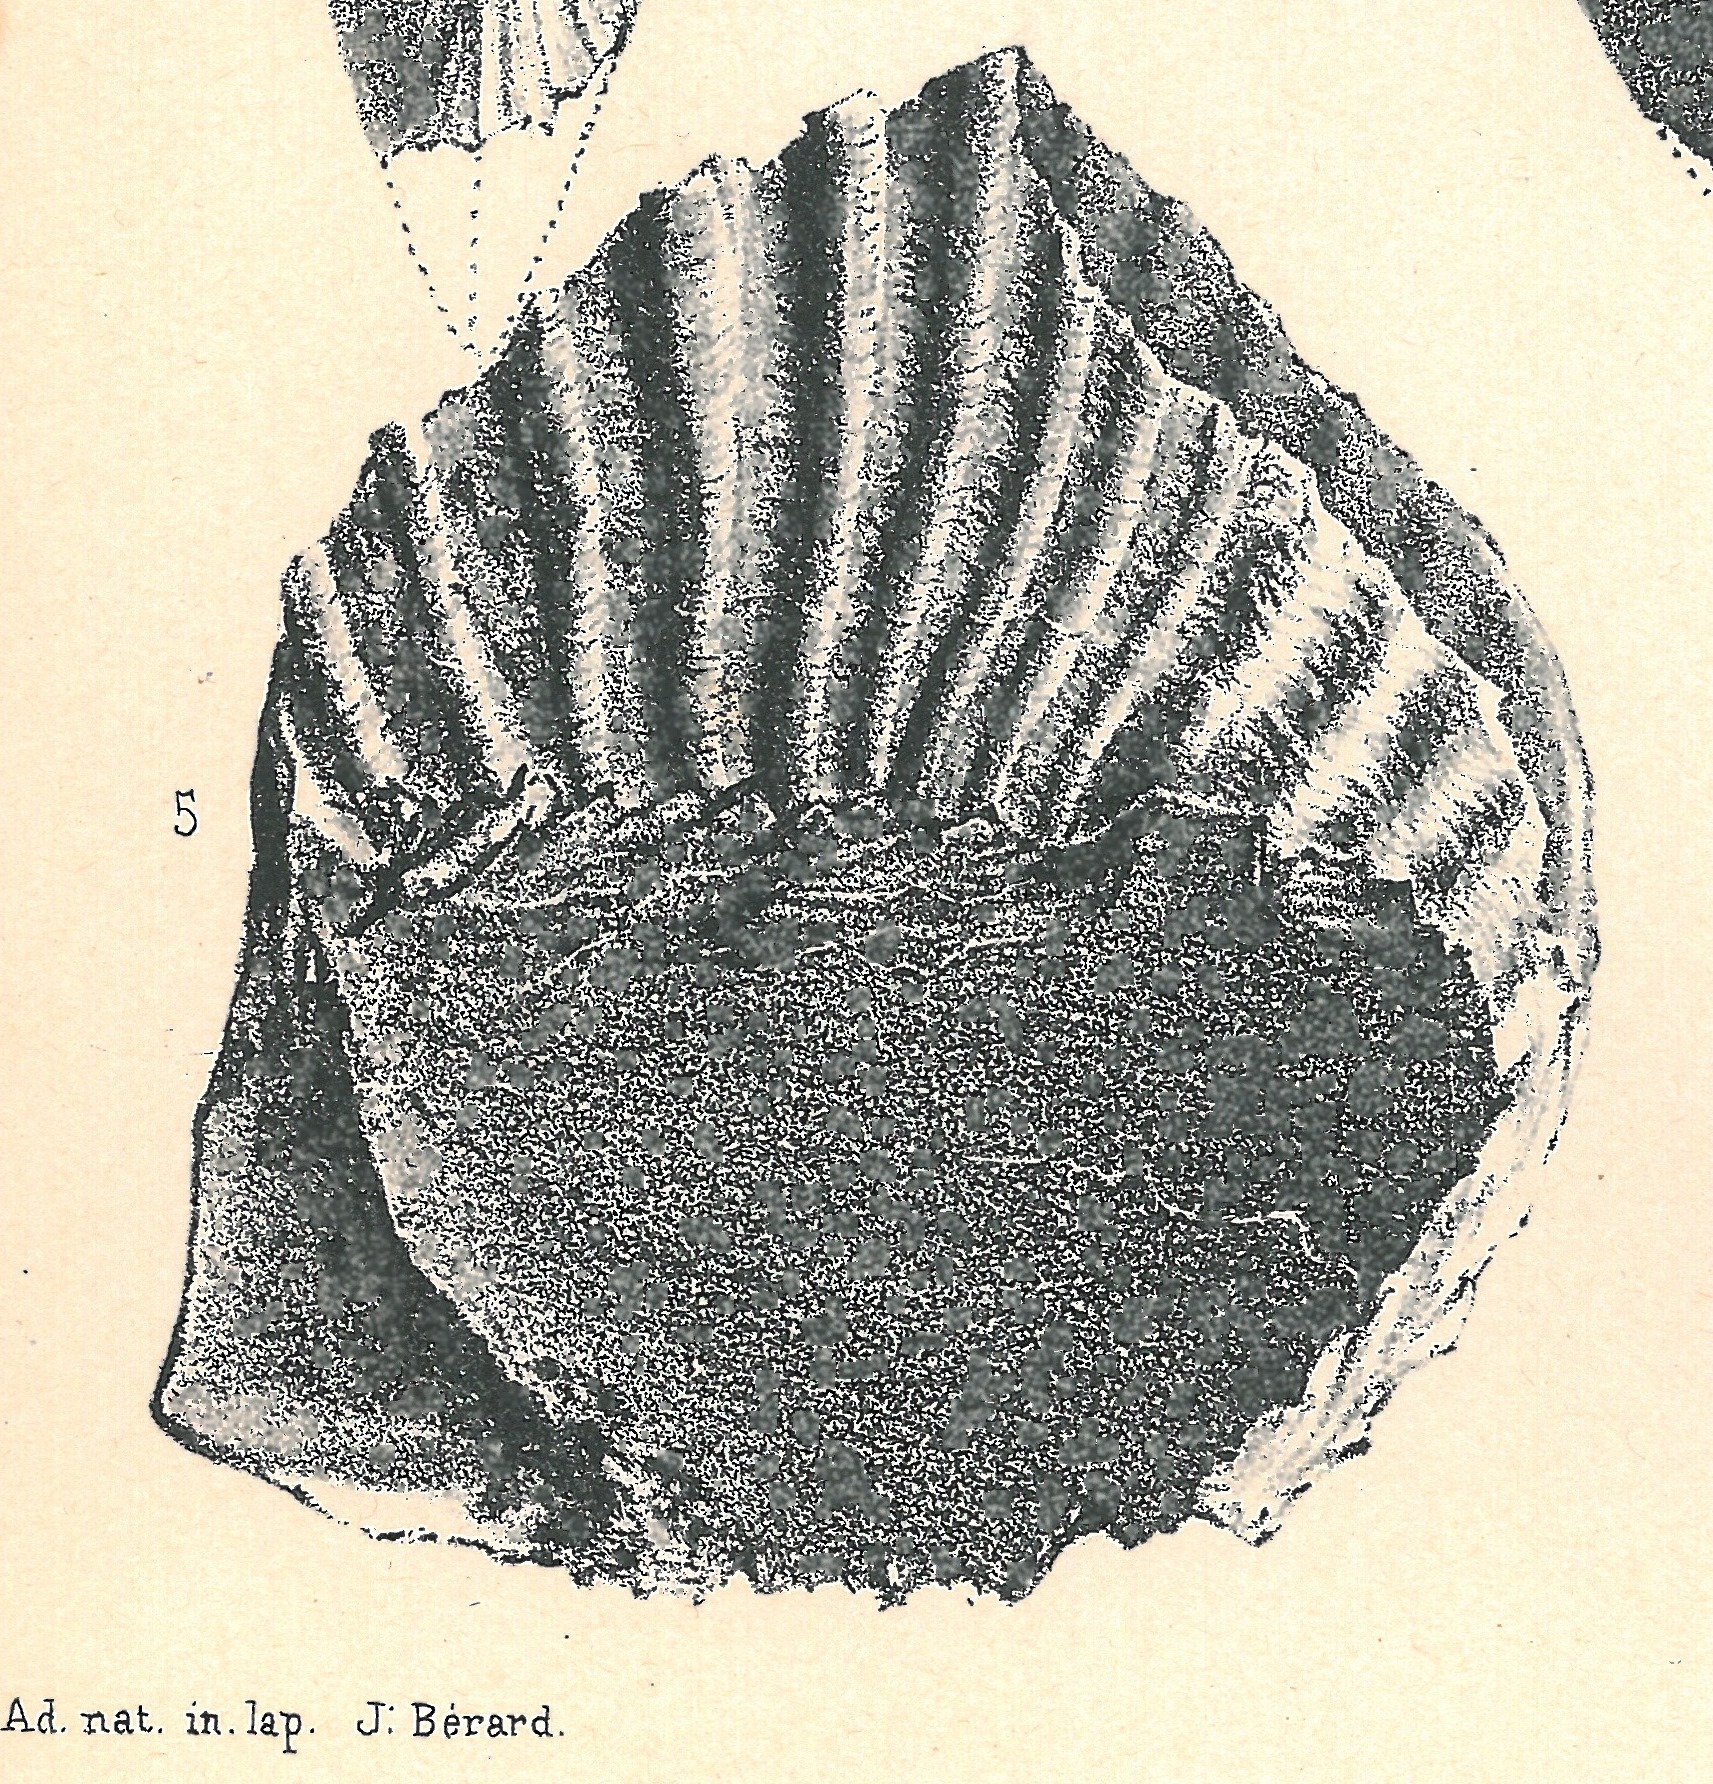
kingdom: Animalia
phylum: Mollusca
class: Bivalvia
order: Ostreida
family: Ostreidae
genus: Ostrea
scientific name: Ostrea
